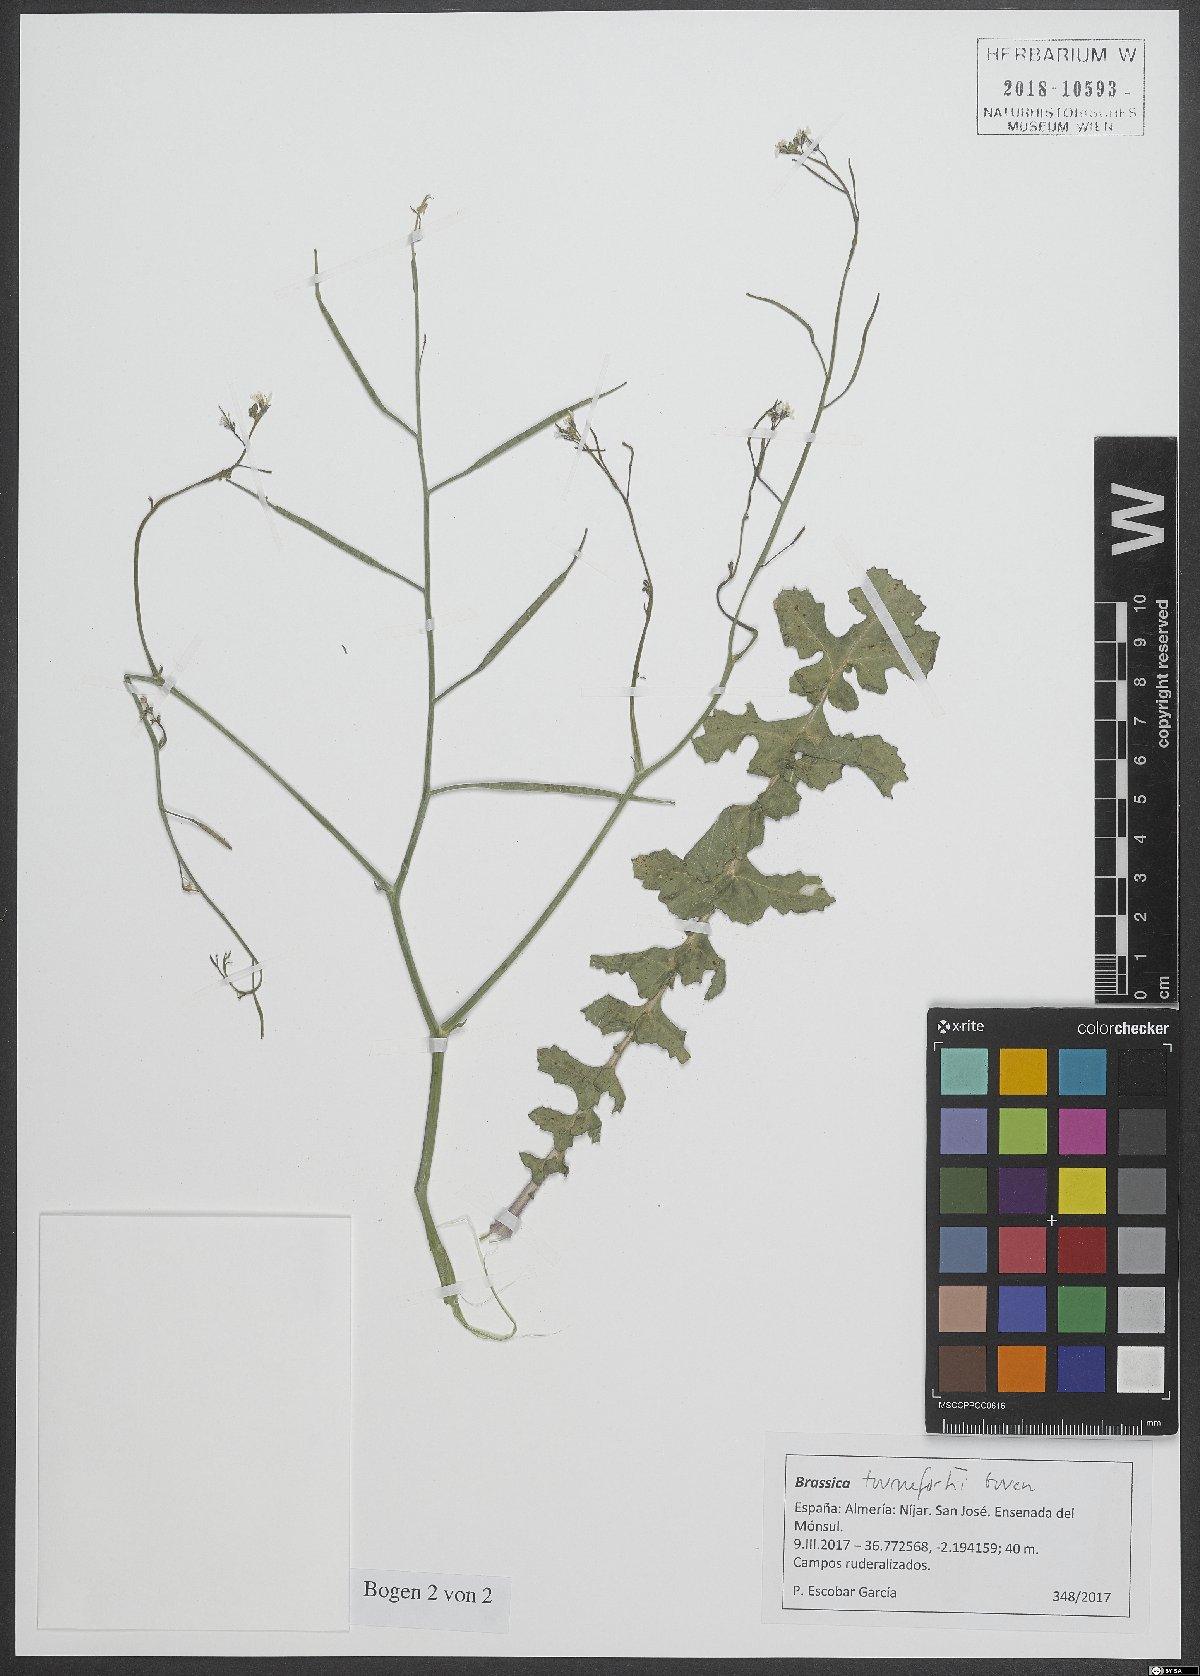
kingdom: Plantae
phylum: Tracheophyta
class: Magnoliopsida
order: Brassicales
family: Brassicaceae
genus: Brassica
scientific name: Brassica tournefortii
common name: Pale cabbage
